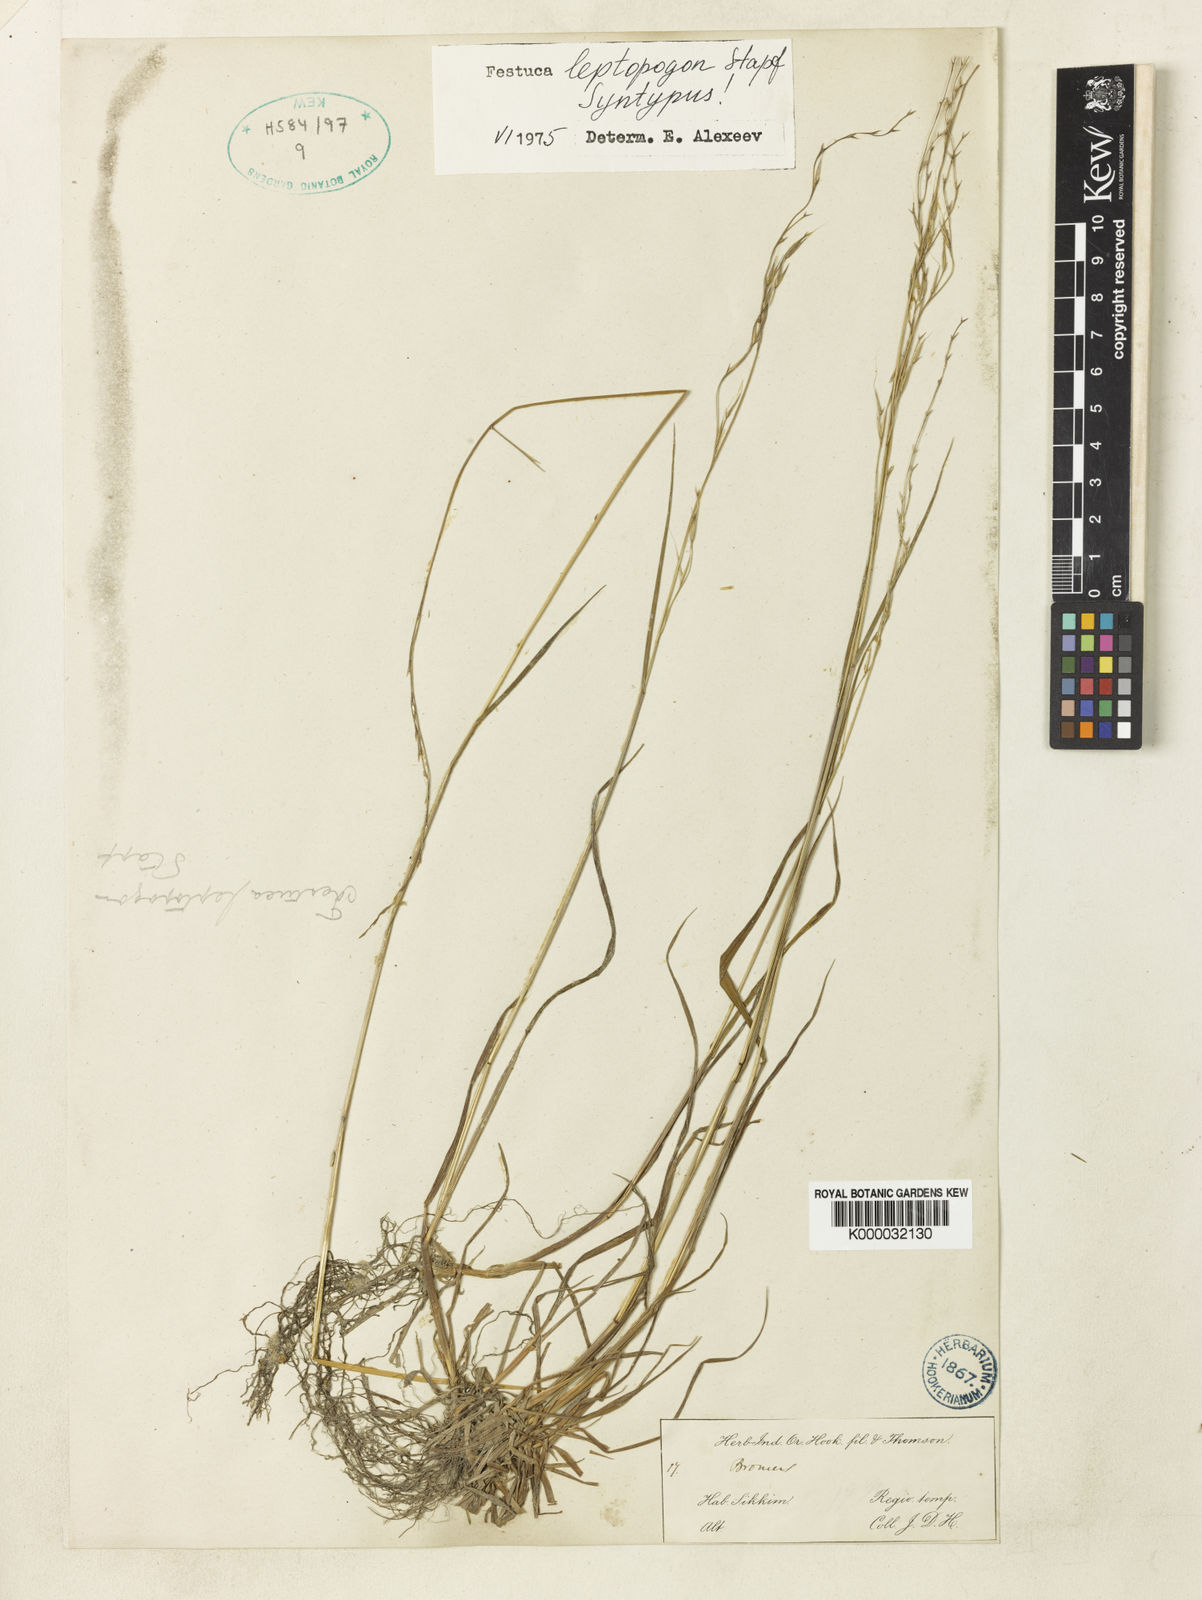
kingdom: Plantae
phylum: Tracheophyta
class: Liliopsida
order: Poales
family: Poaceae
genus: Festuca
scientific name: Festuca leptopogon
